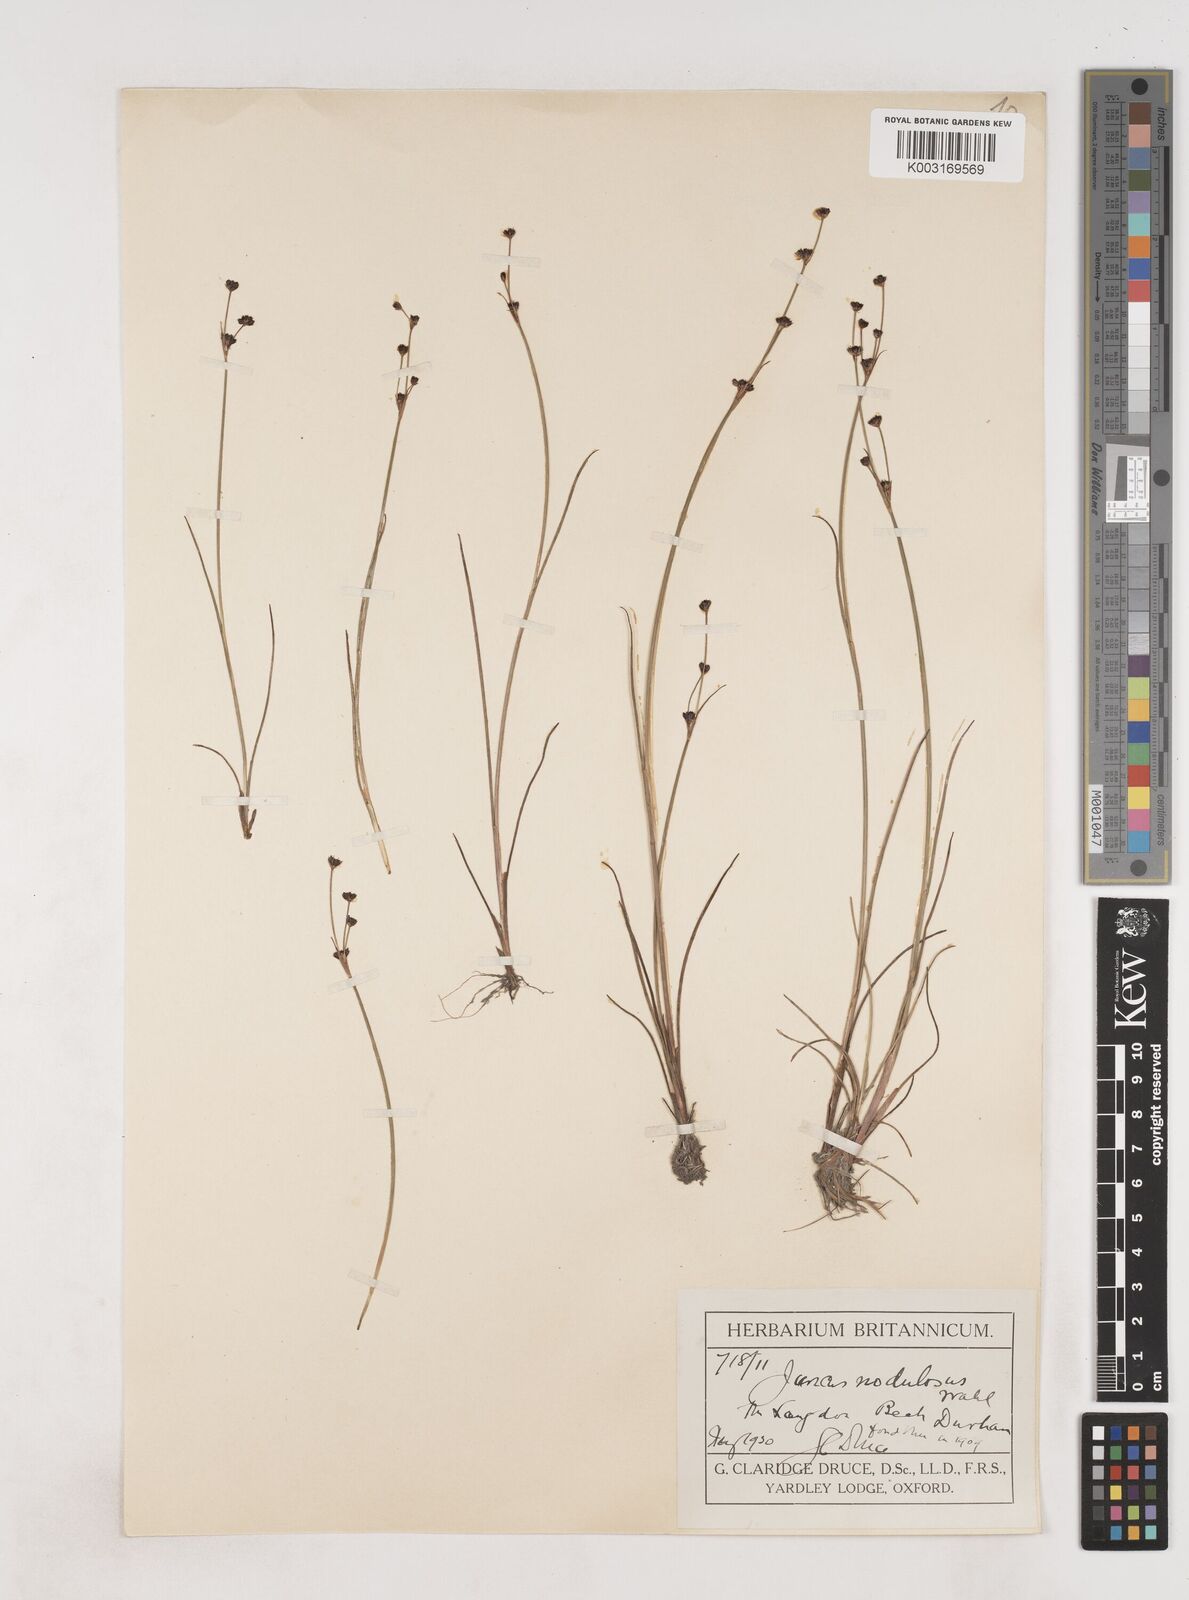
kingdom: Plantae
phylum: Tracheophyta
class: Liliopsida
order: Poales
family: Juncaceae
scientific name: Juncaceae
